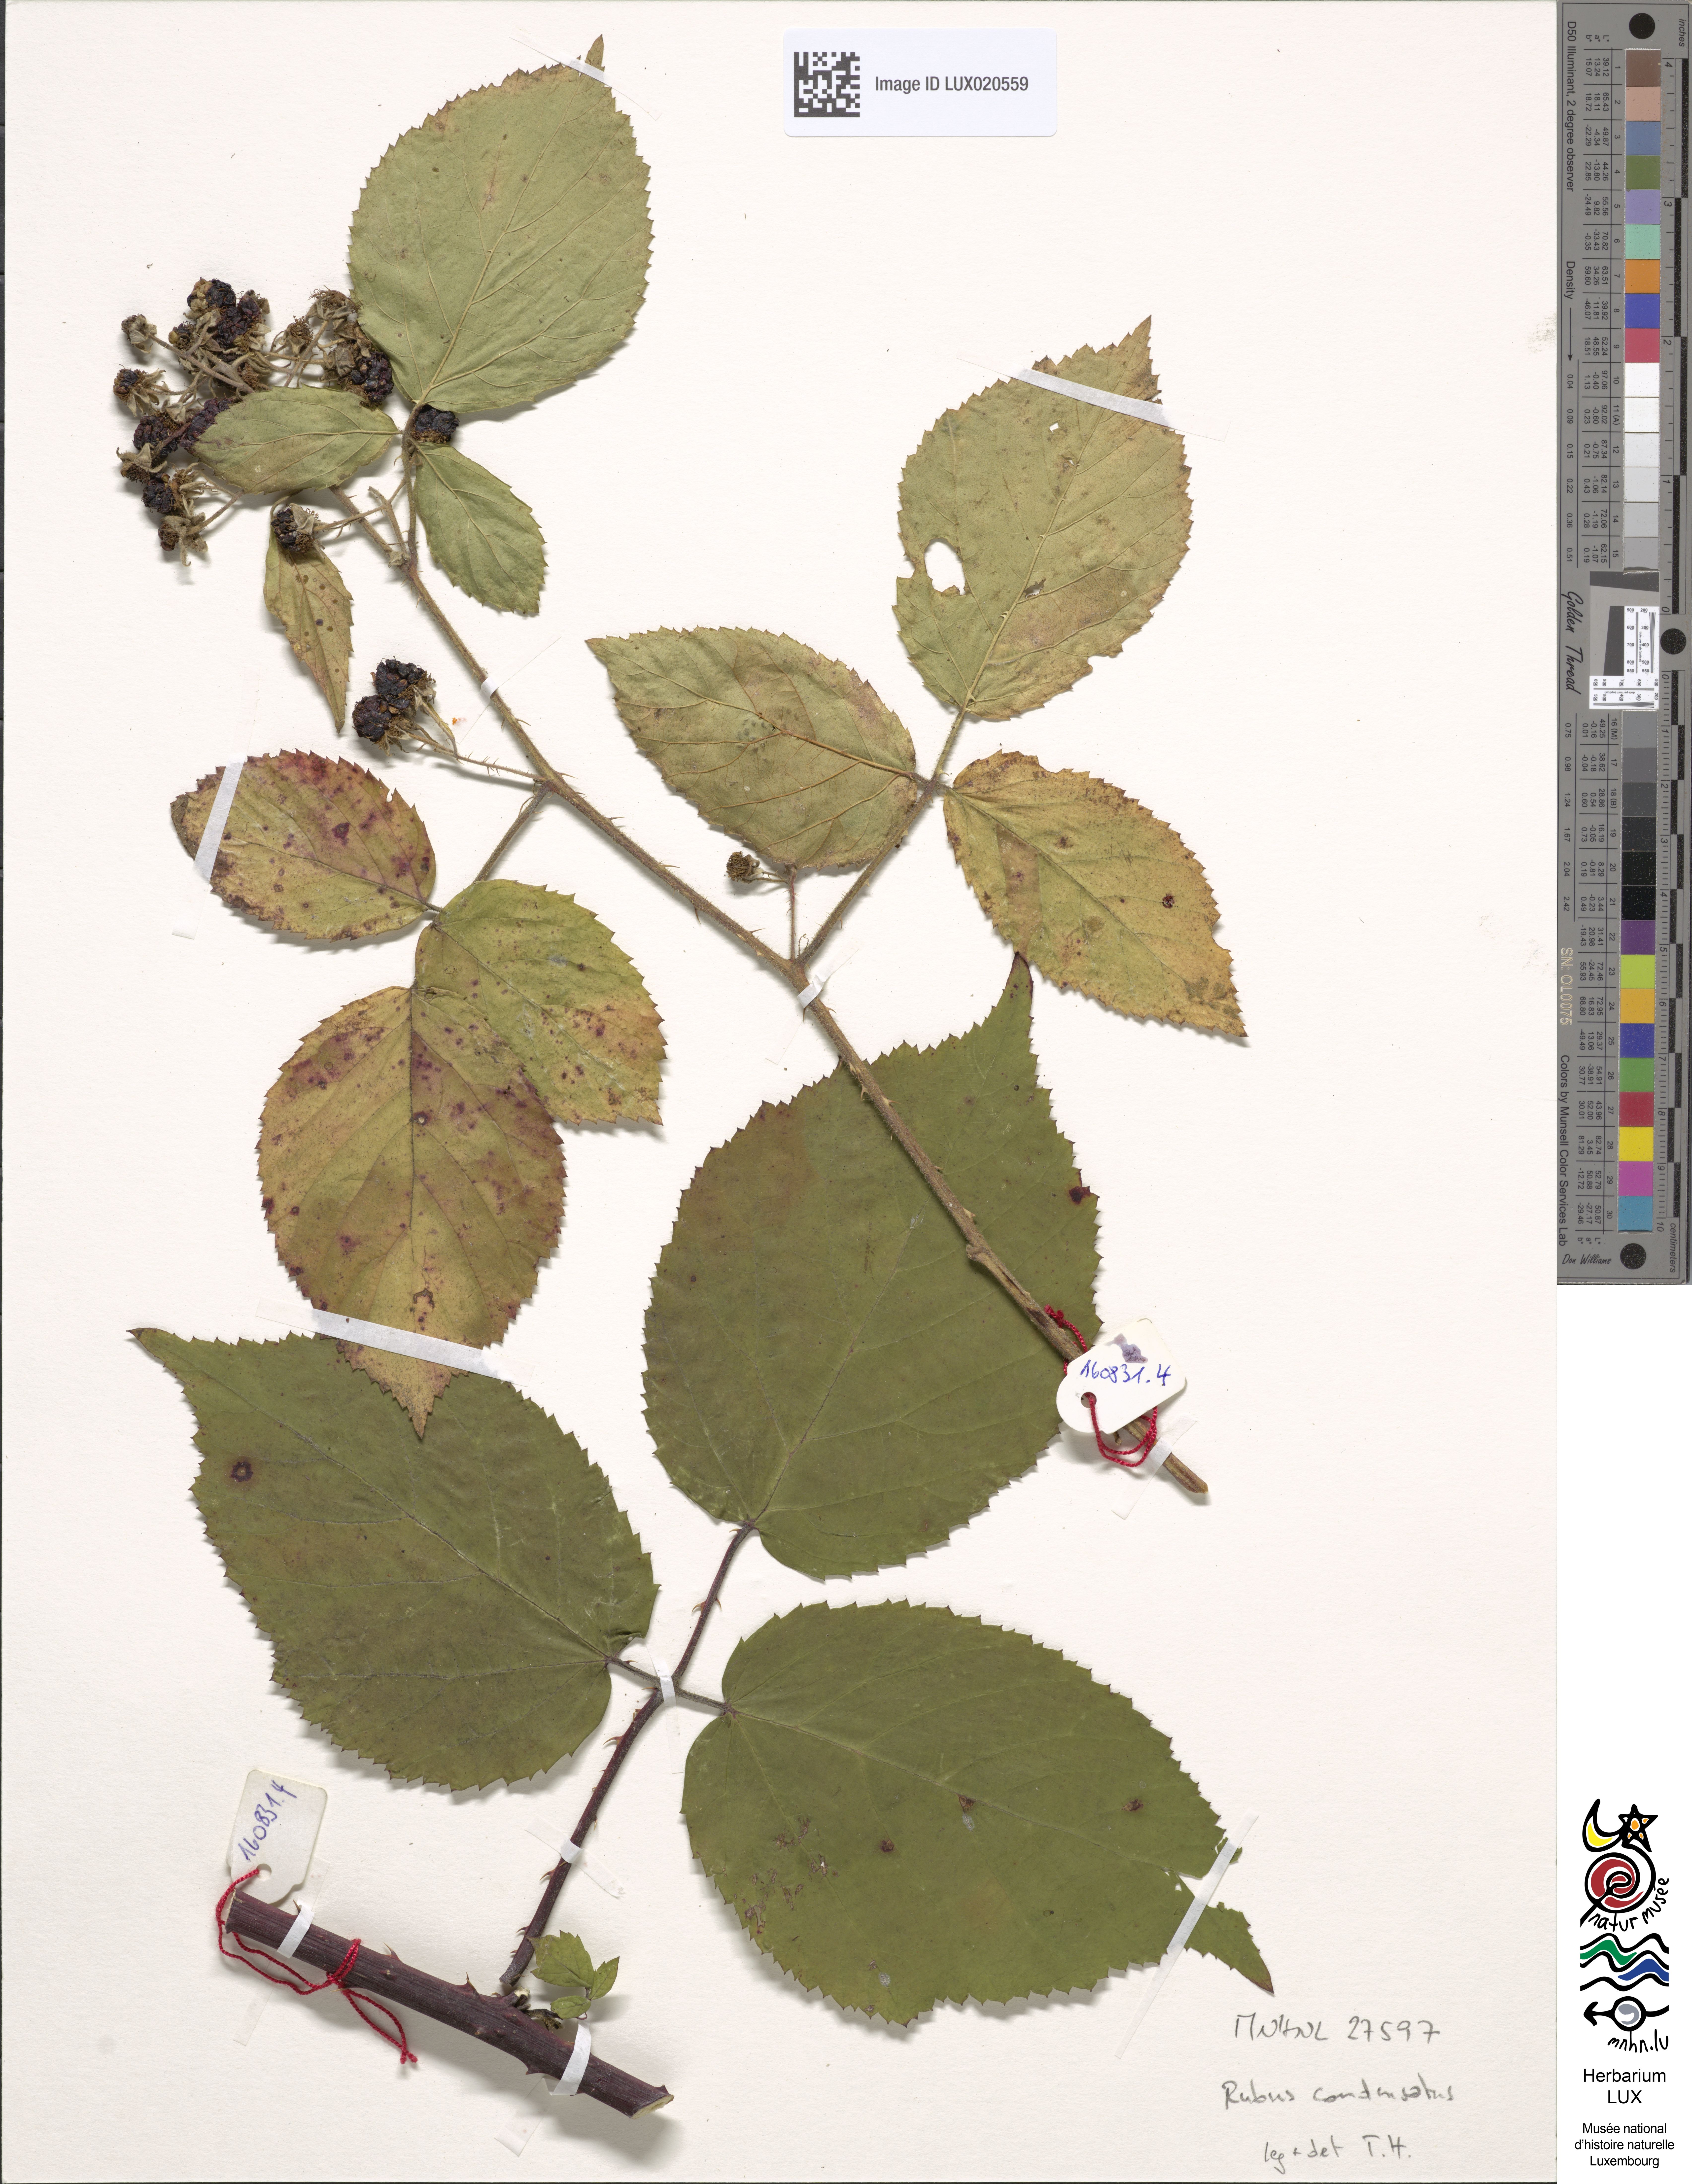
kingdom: Plantae
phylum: Tracheophyta
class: Magnoliopsida
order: Rosales
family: Rosaceae
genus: Rubus
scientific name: Rubus condensatus
